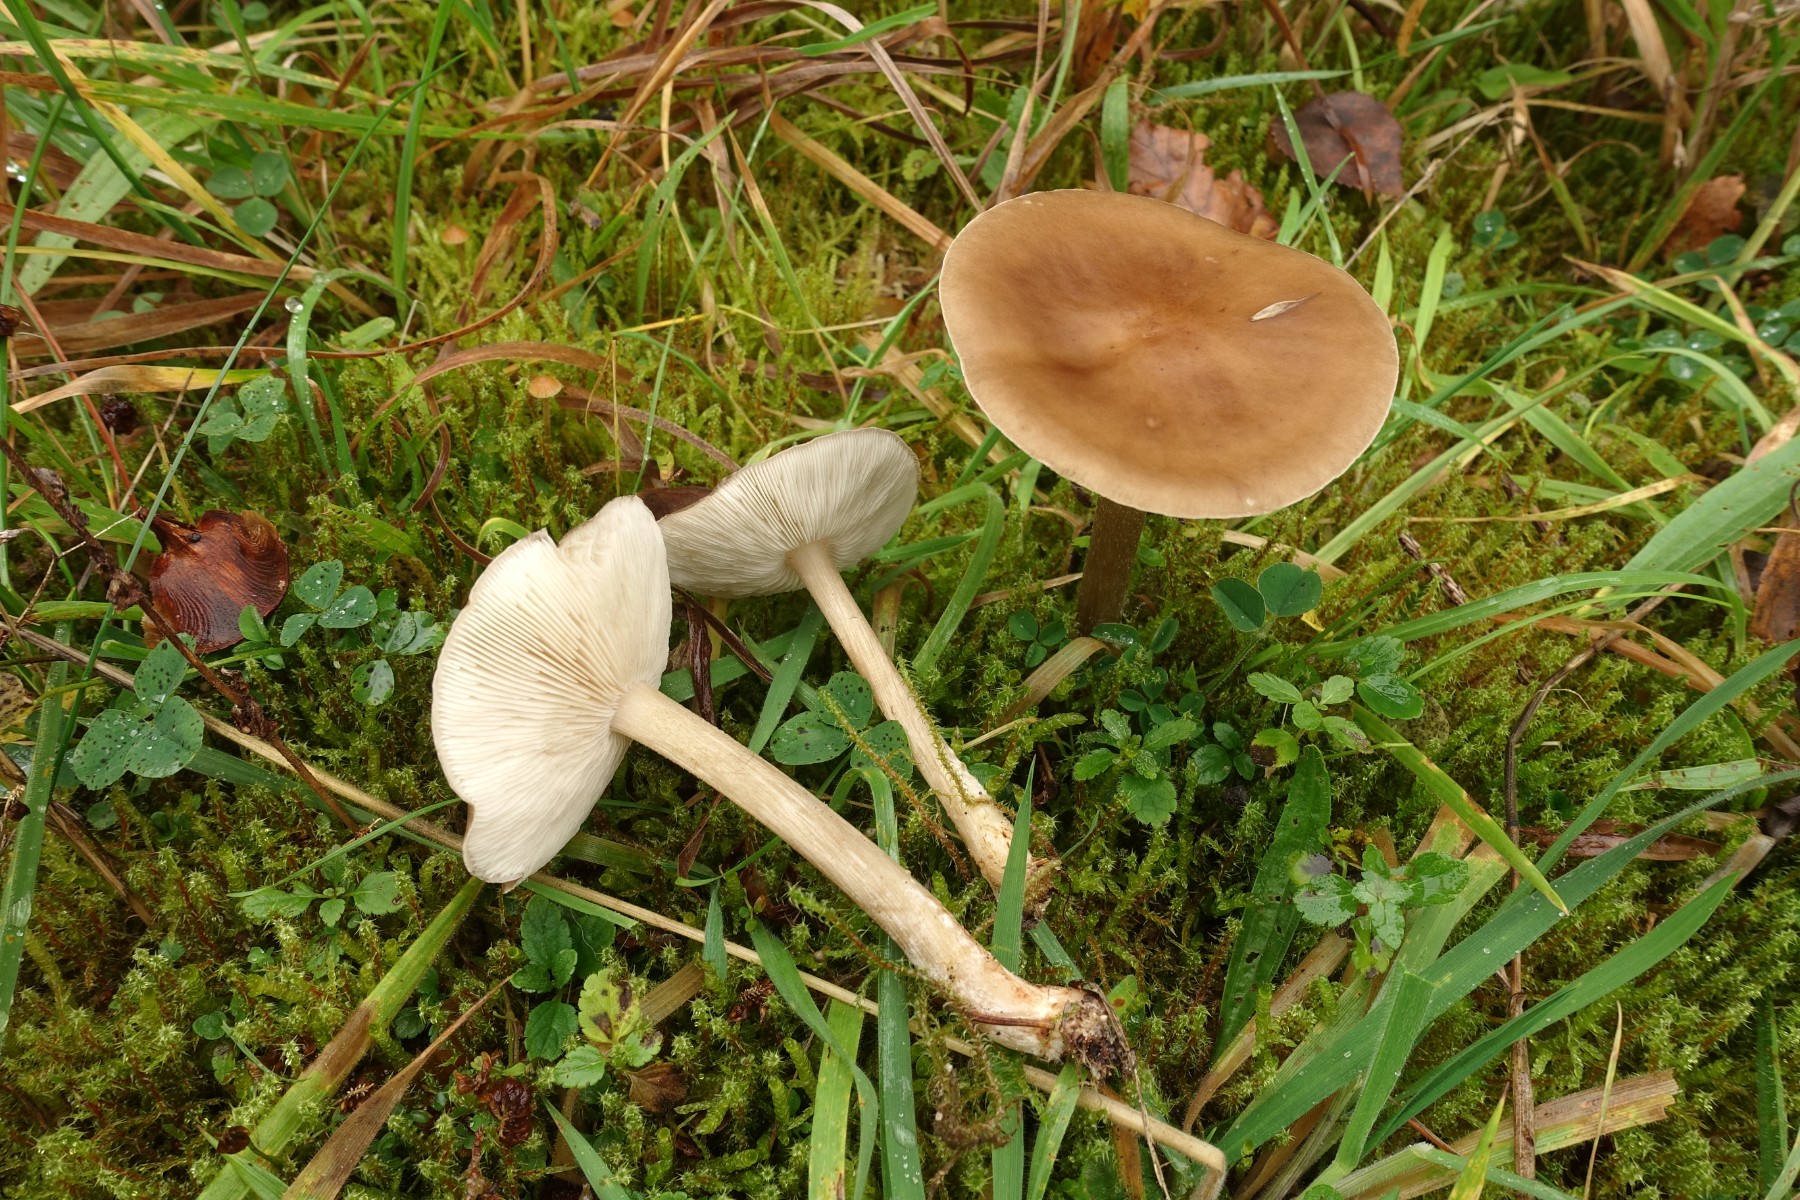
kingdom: Fungi
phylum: Basidiomycota
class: Agaricomycetes
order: Agaricales
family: Tricholomataceae
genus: Melanoleuca
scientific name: Melanoleuca grammopodia
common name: stribestokket munkehat
